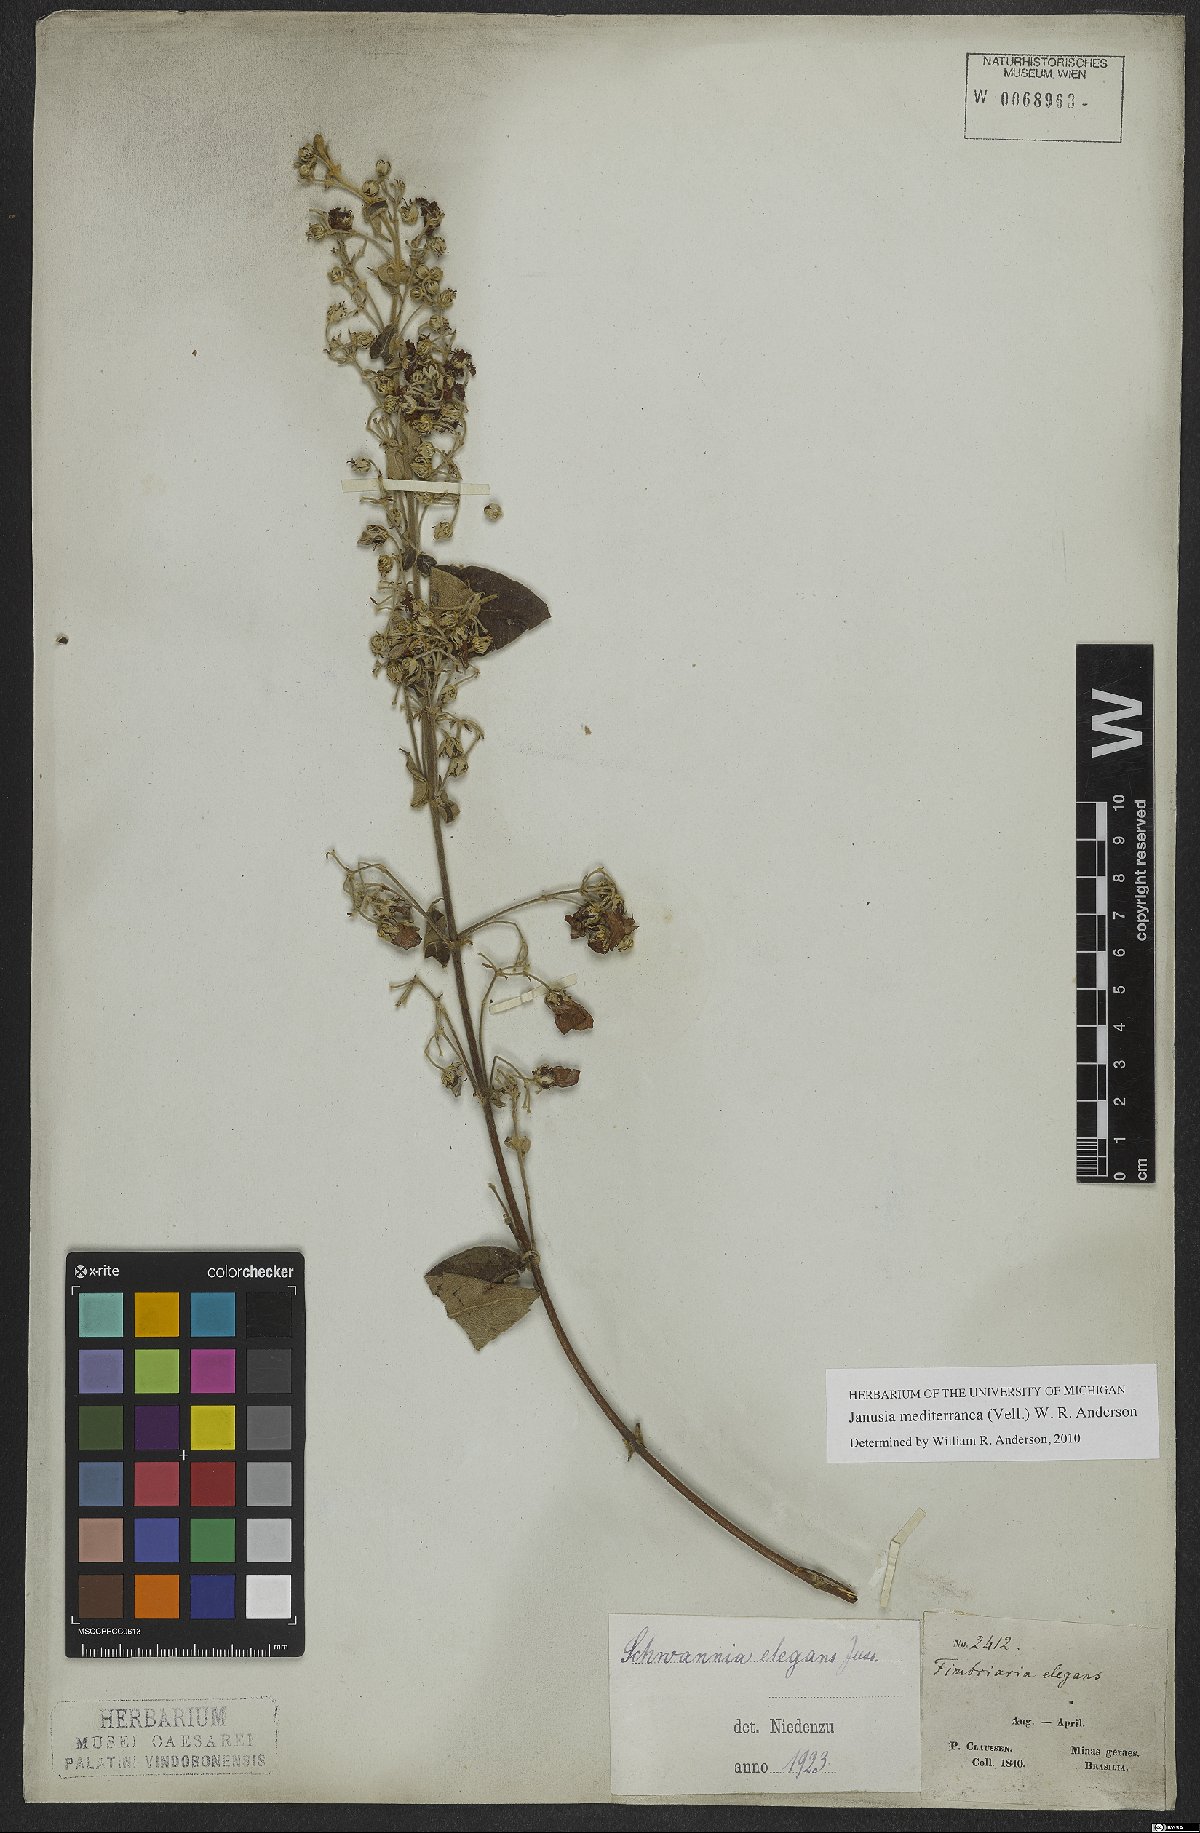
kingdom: Plantae
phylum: Tracheophyta
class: Magnoliopsida
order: Malpighiales
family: Malpighiaceae
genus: Janusia
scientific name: Janusia mediterranea
